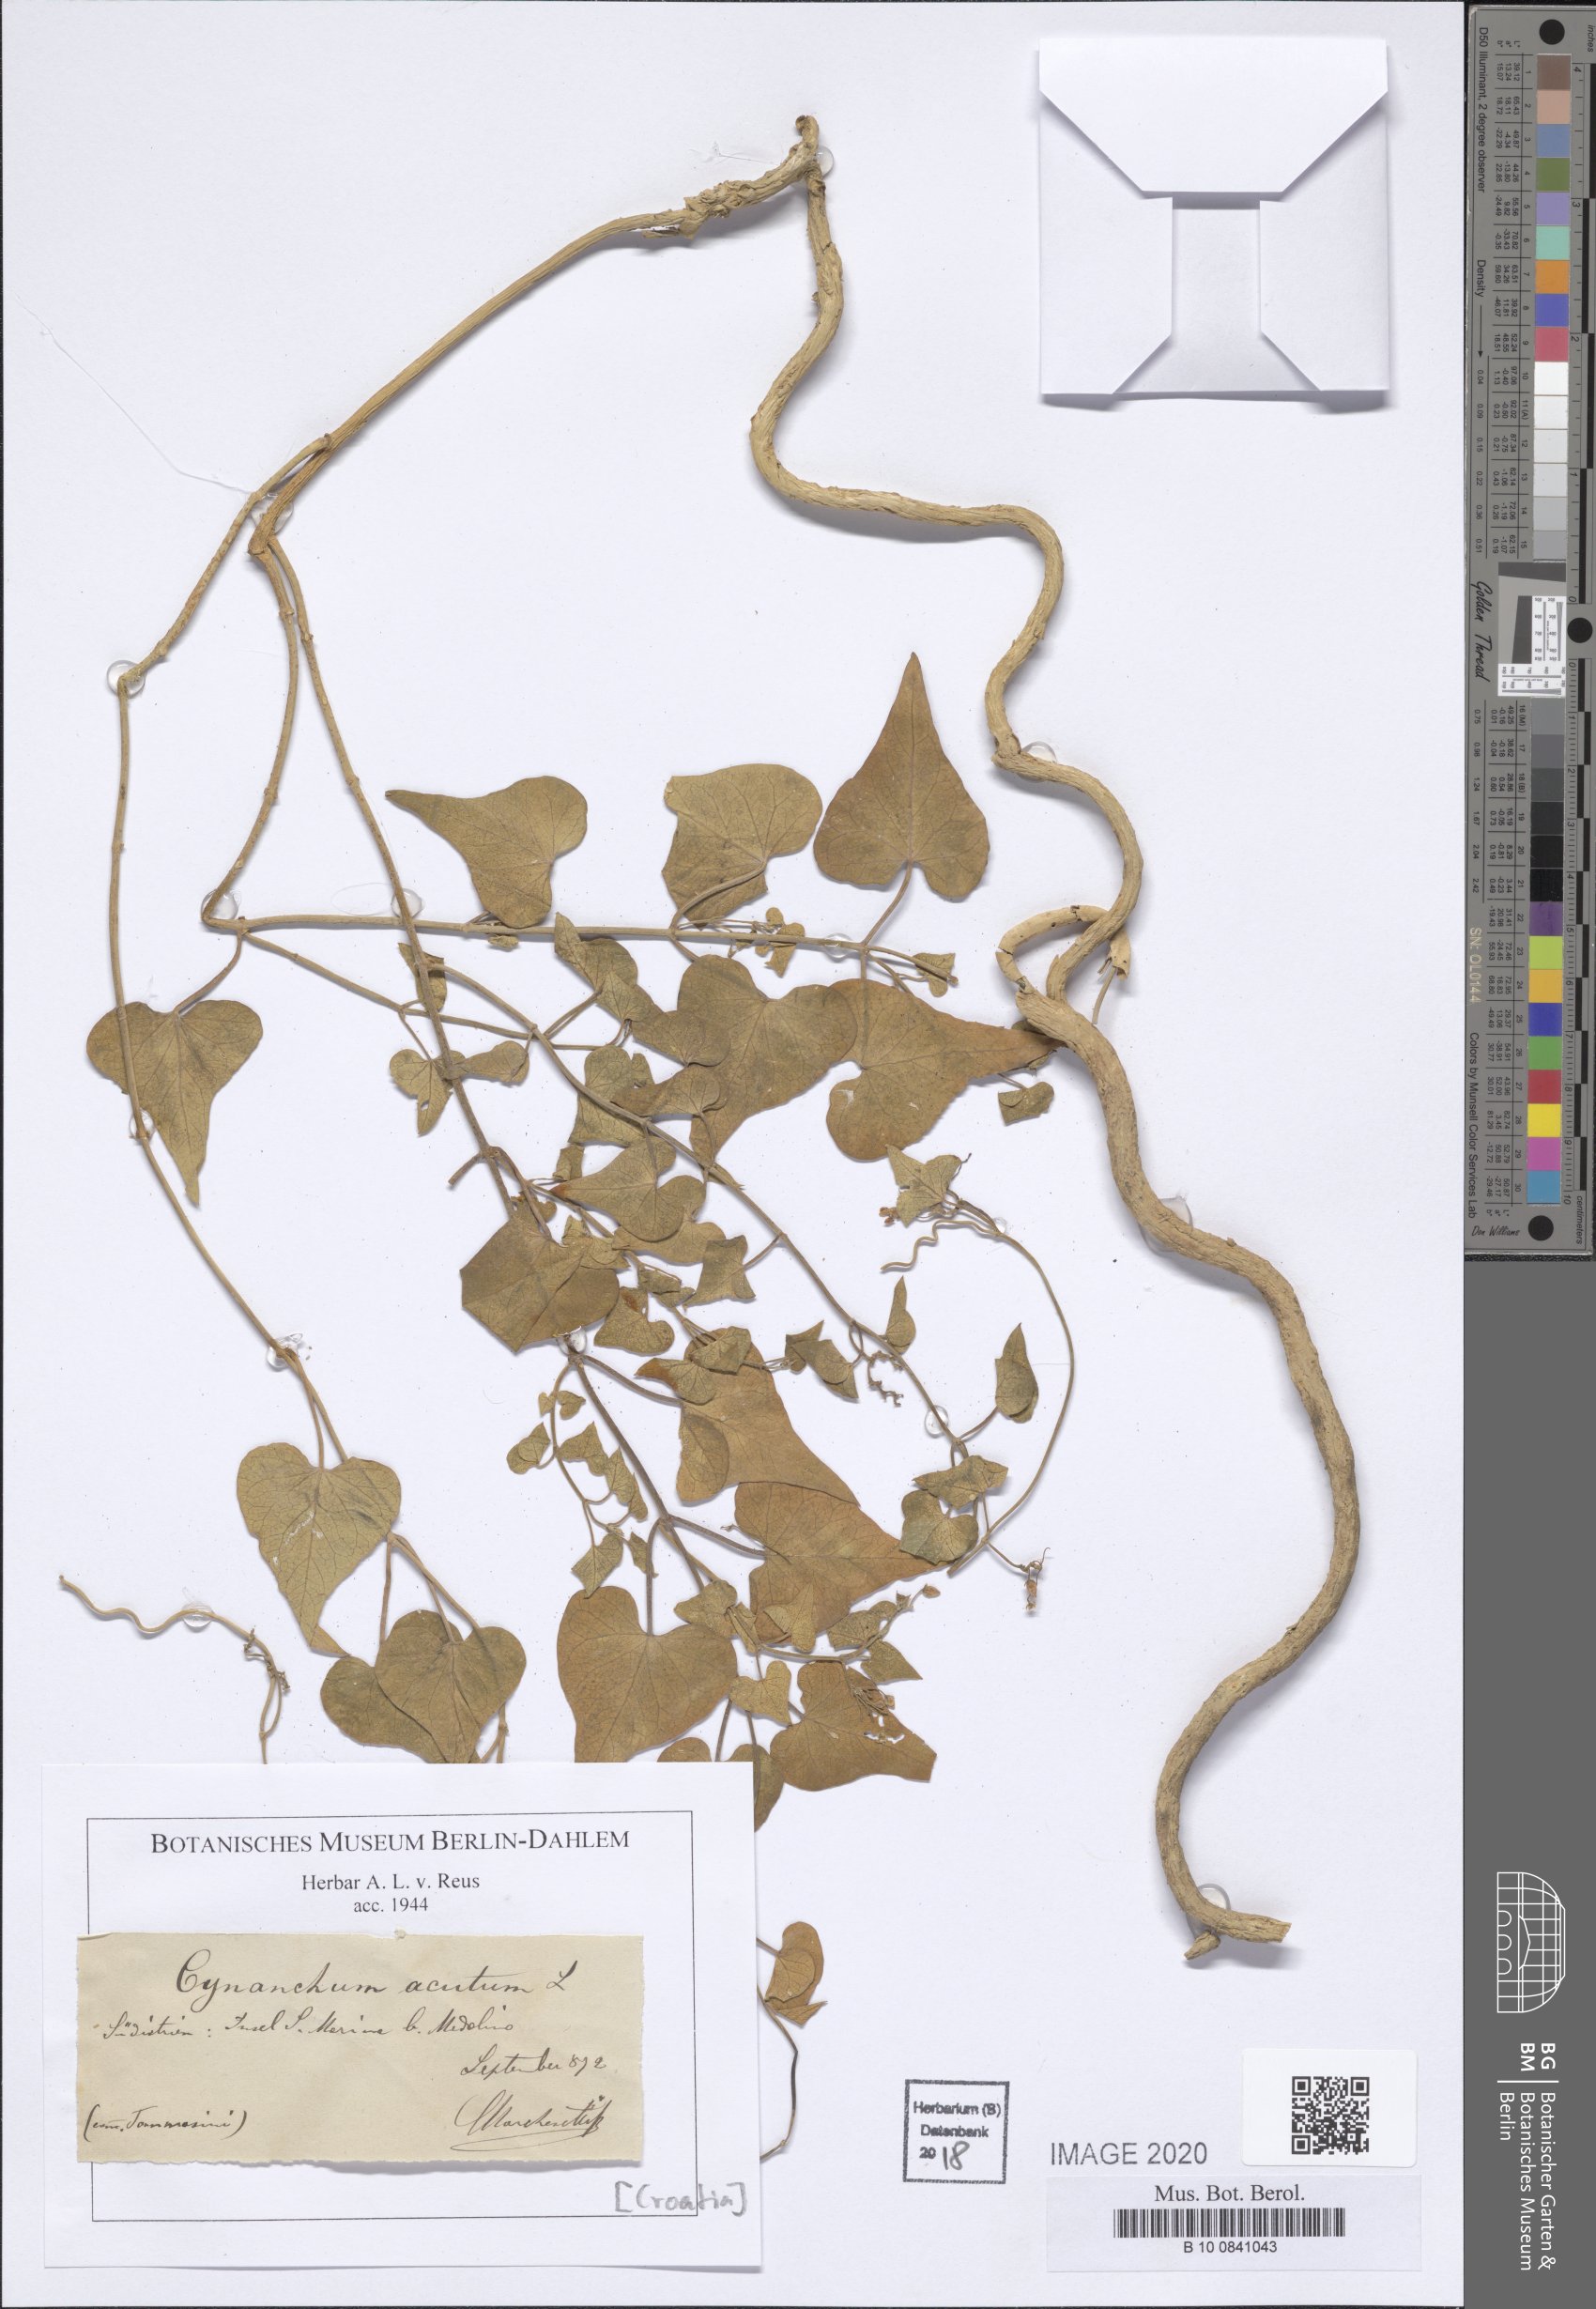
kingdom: Plantae
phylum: Tracheophyta
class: Magnoliopsida
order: Gentianales
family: Apocynaceae
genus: Cynanchum
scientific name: Cynanchum acutum
